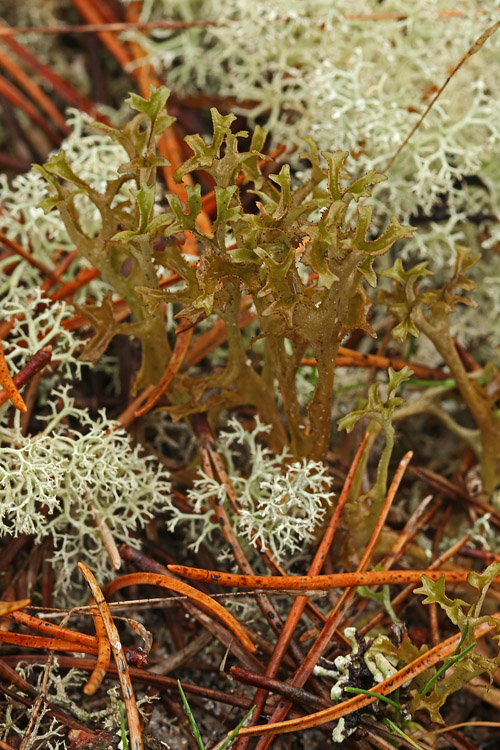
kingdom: Fungi
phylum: Ascomycota
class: Lecanoromycetes
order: Lecanorales
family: Parmeliaceae
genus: Cetraria
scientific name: Cetraria islandica
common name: islandsk kruslav
